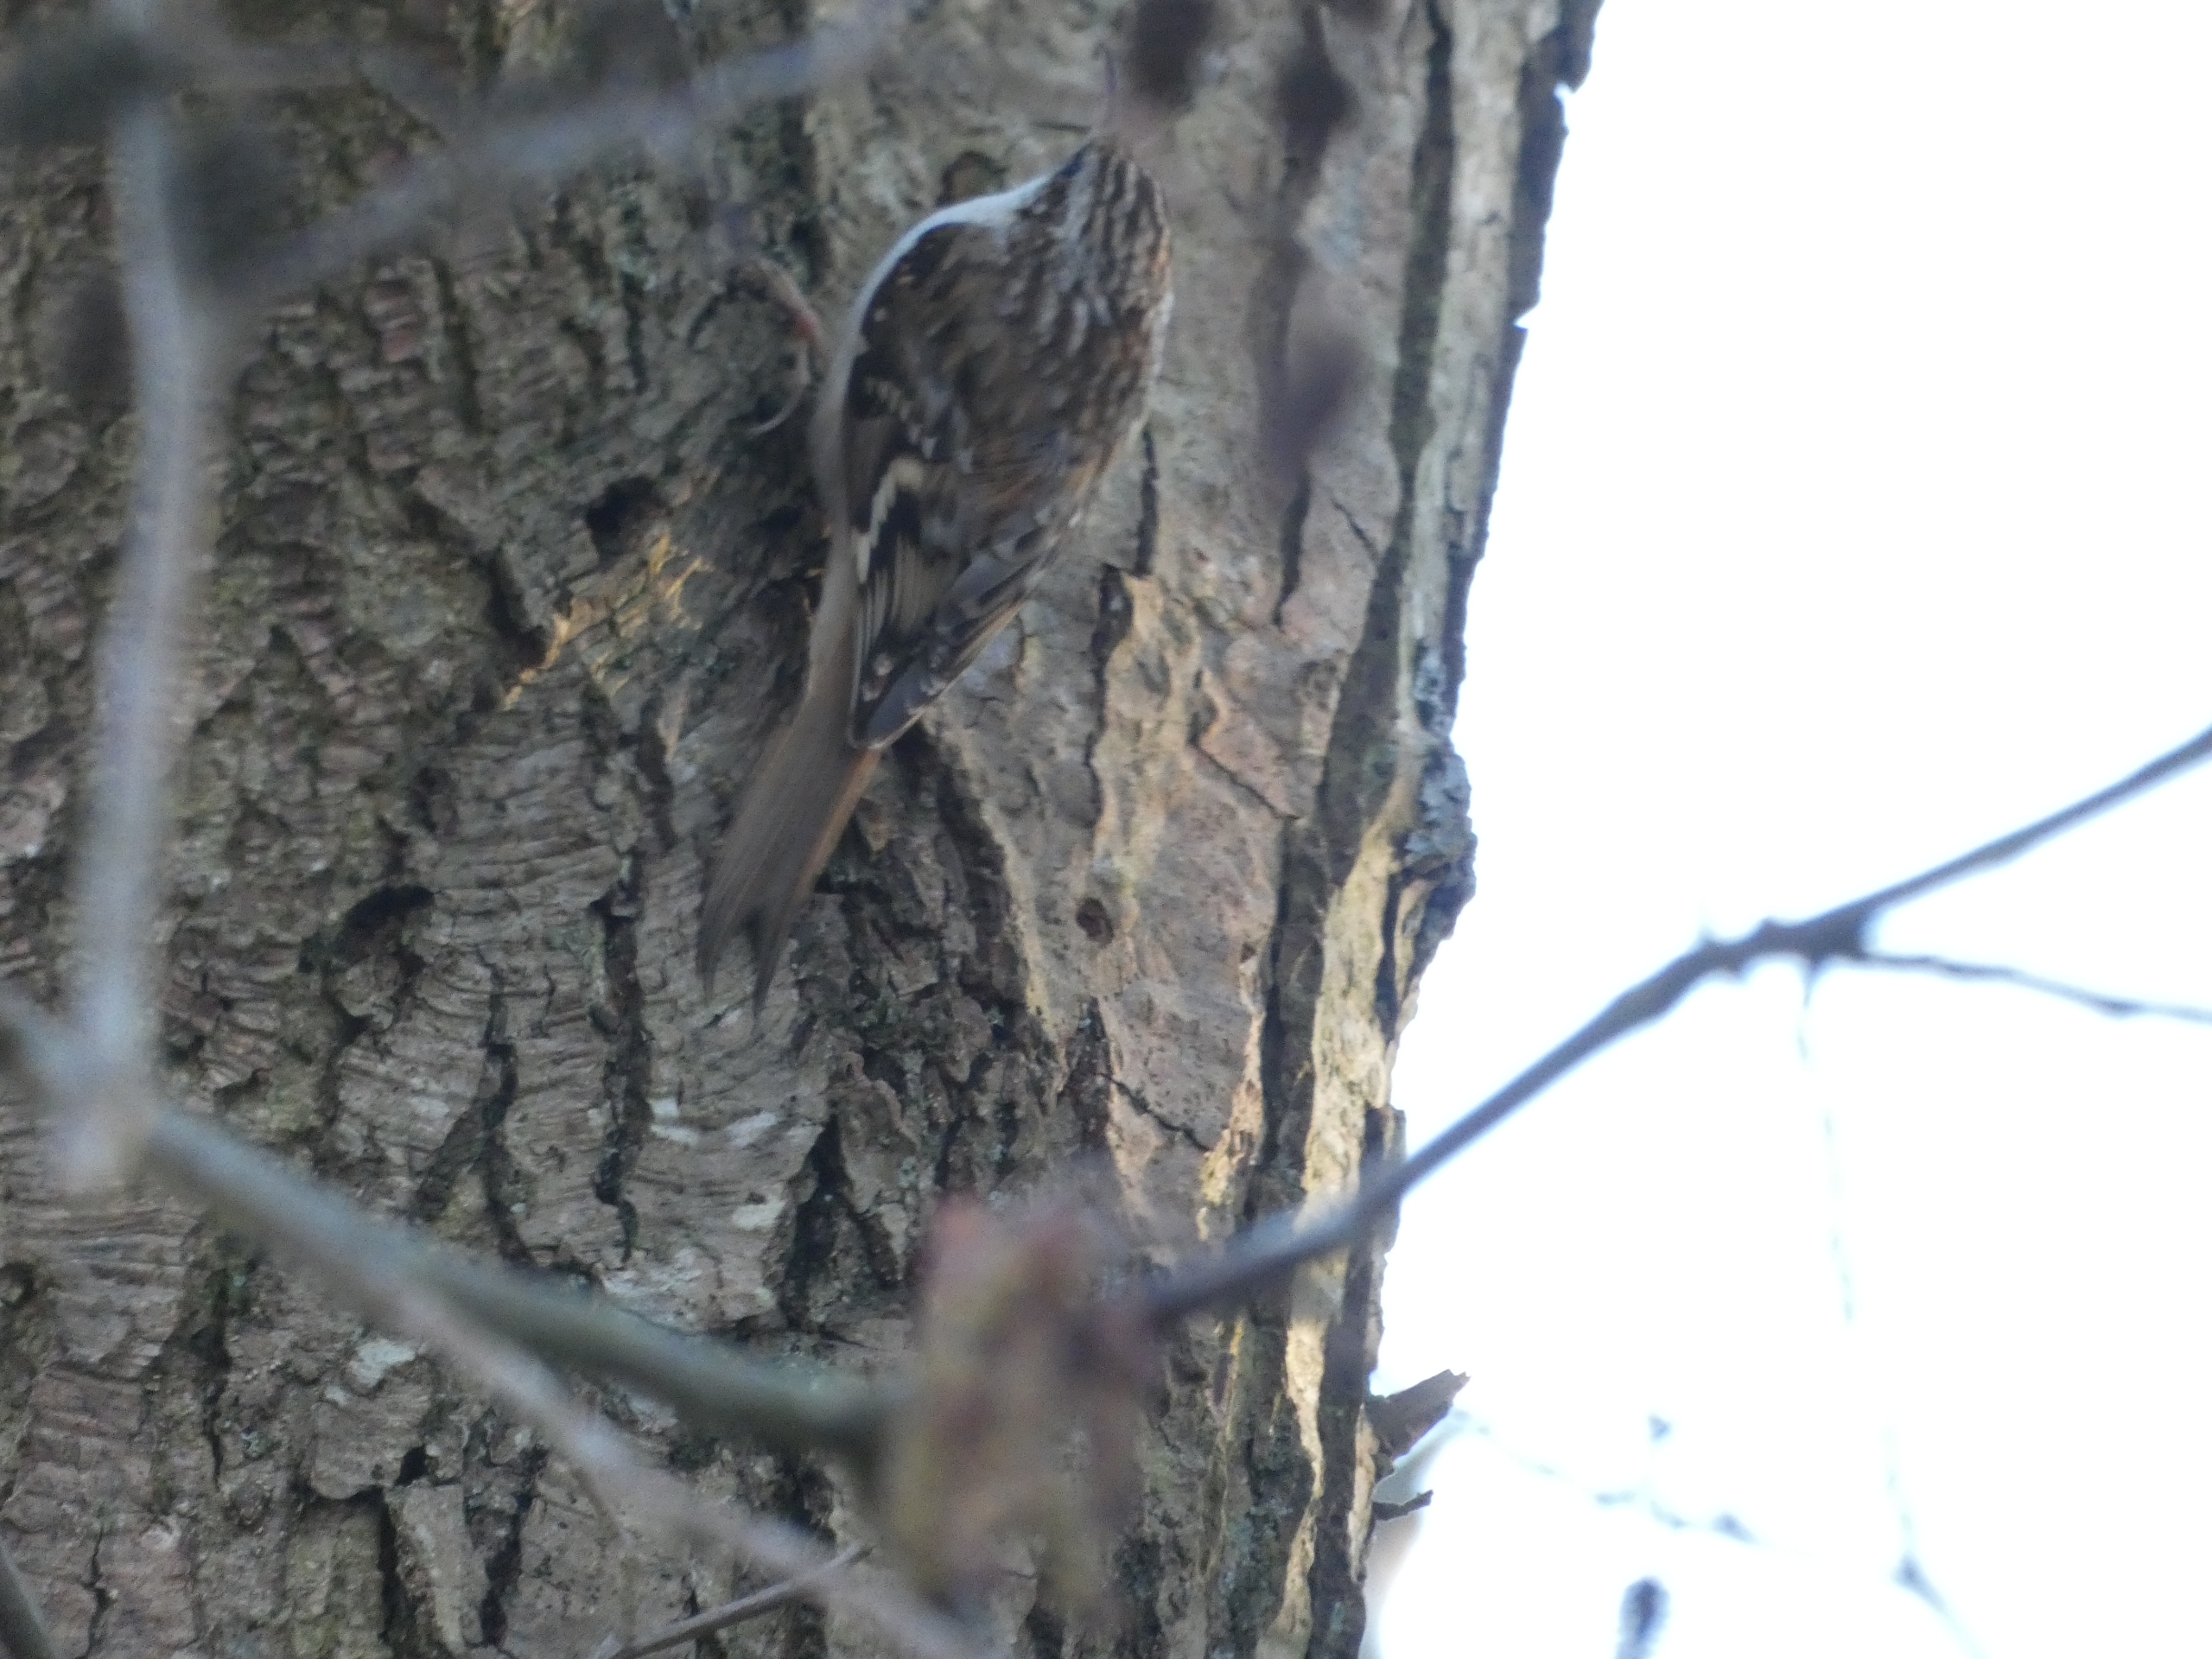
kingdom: Animalia
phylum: Chordata
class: Aves
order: Passeriformes
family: Certhiidae
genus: Certhia
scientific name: Certhia familiaris
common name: Træløber
